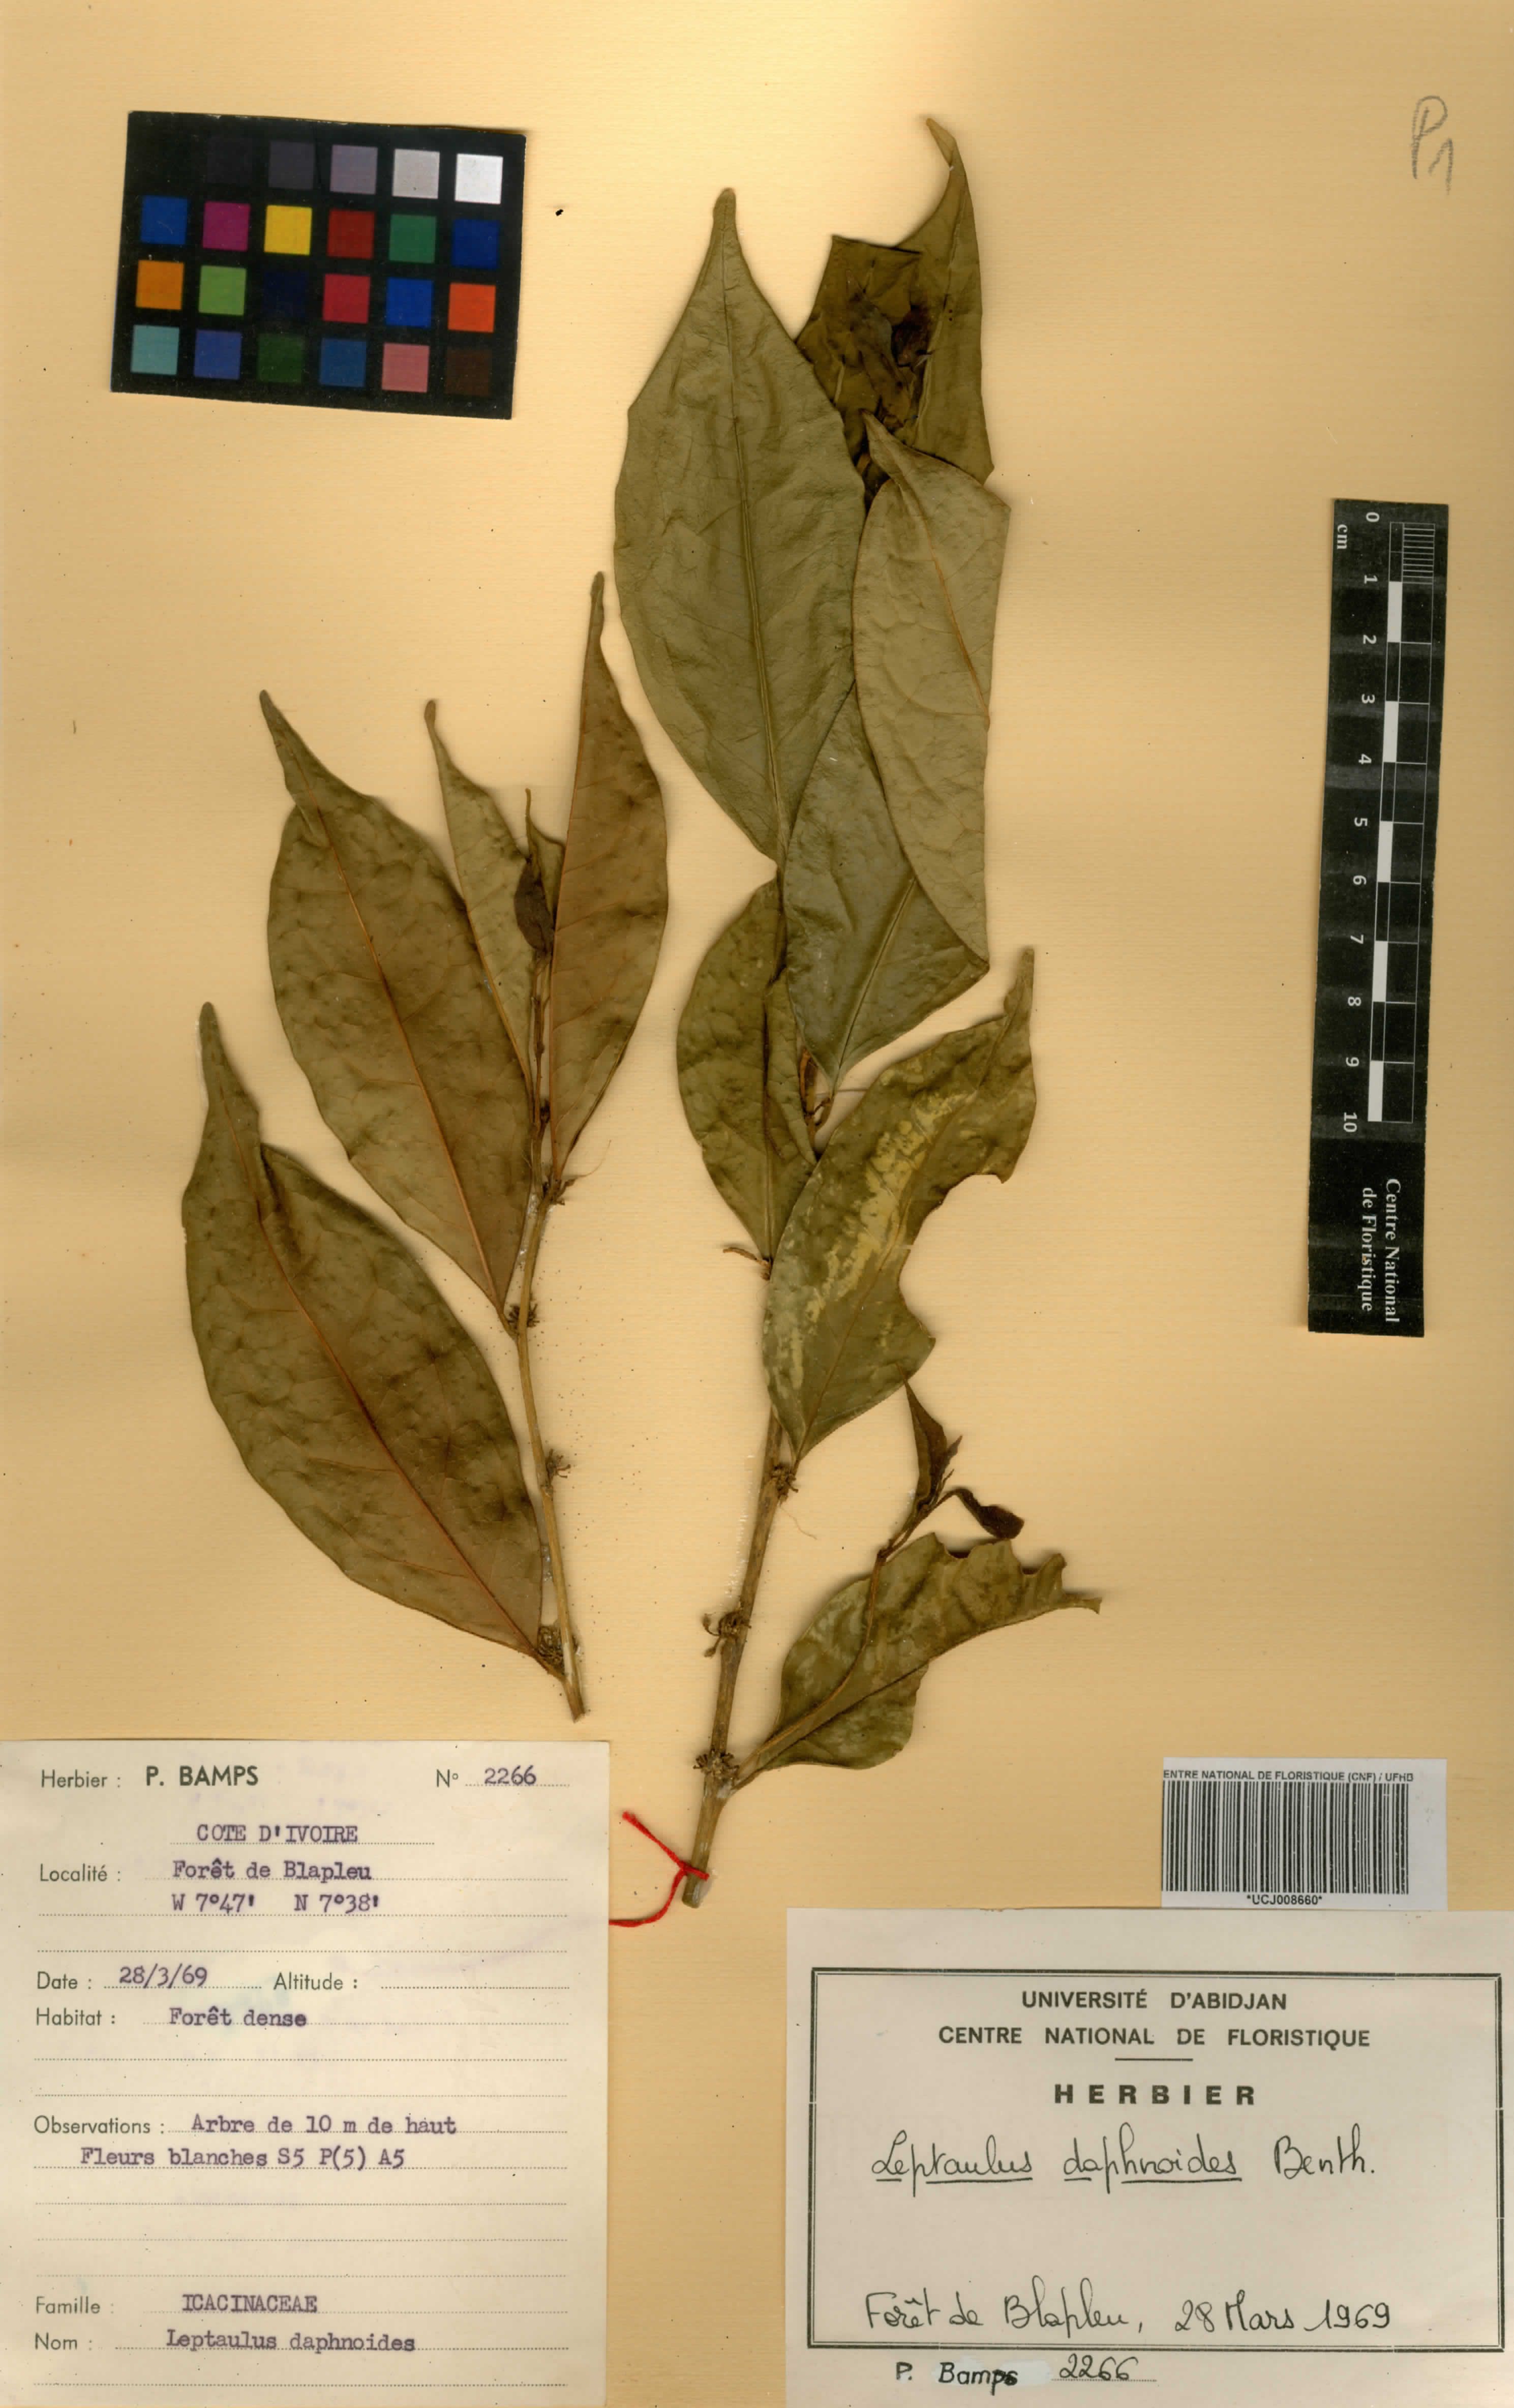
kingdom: Plantae
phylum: Tracheophyta
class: Magnoliopsida
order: Cardiopteridales
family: Cardiopteridaceae
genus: Leptaulus
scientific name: Leptaulus daphnoides
